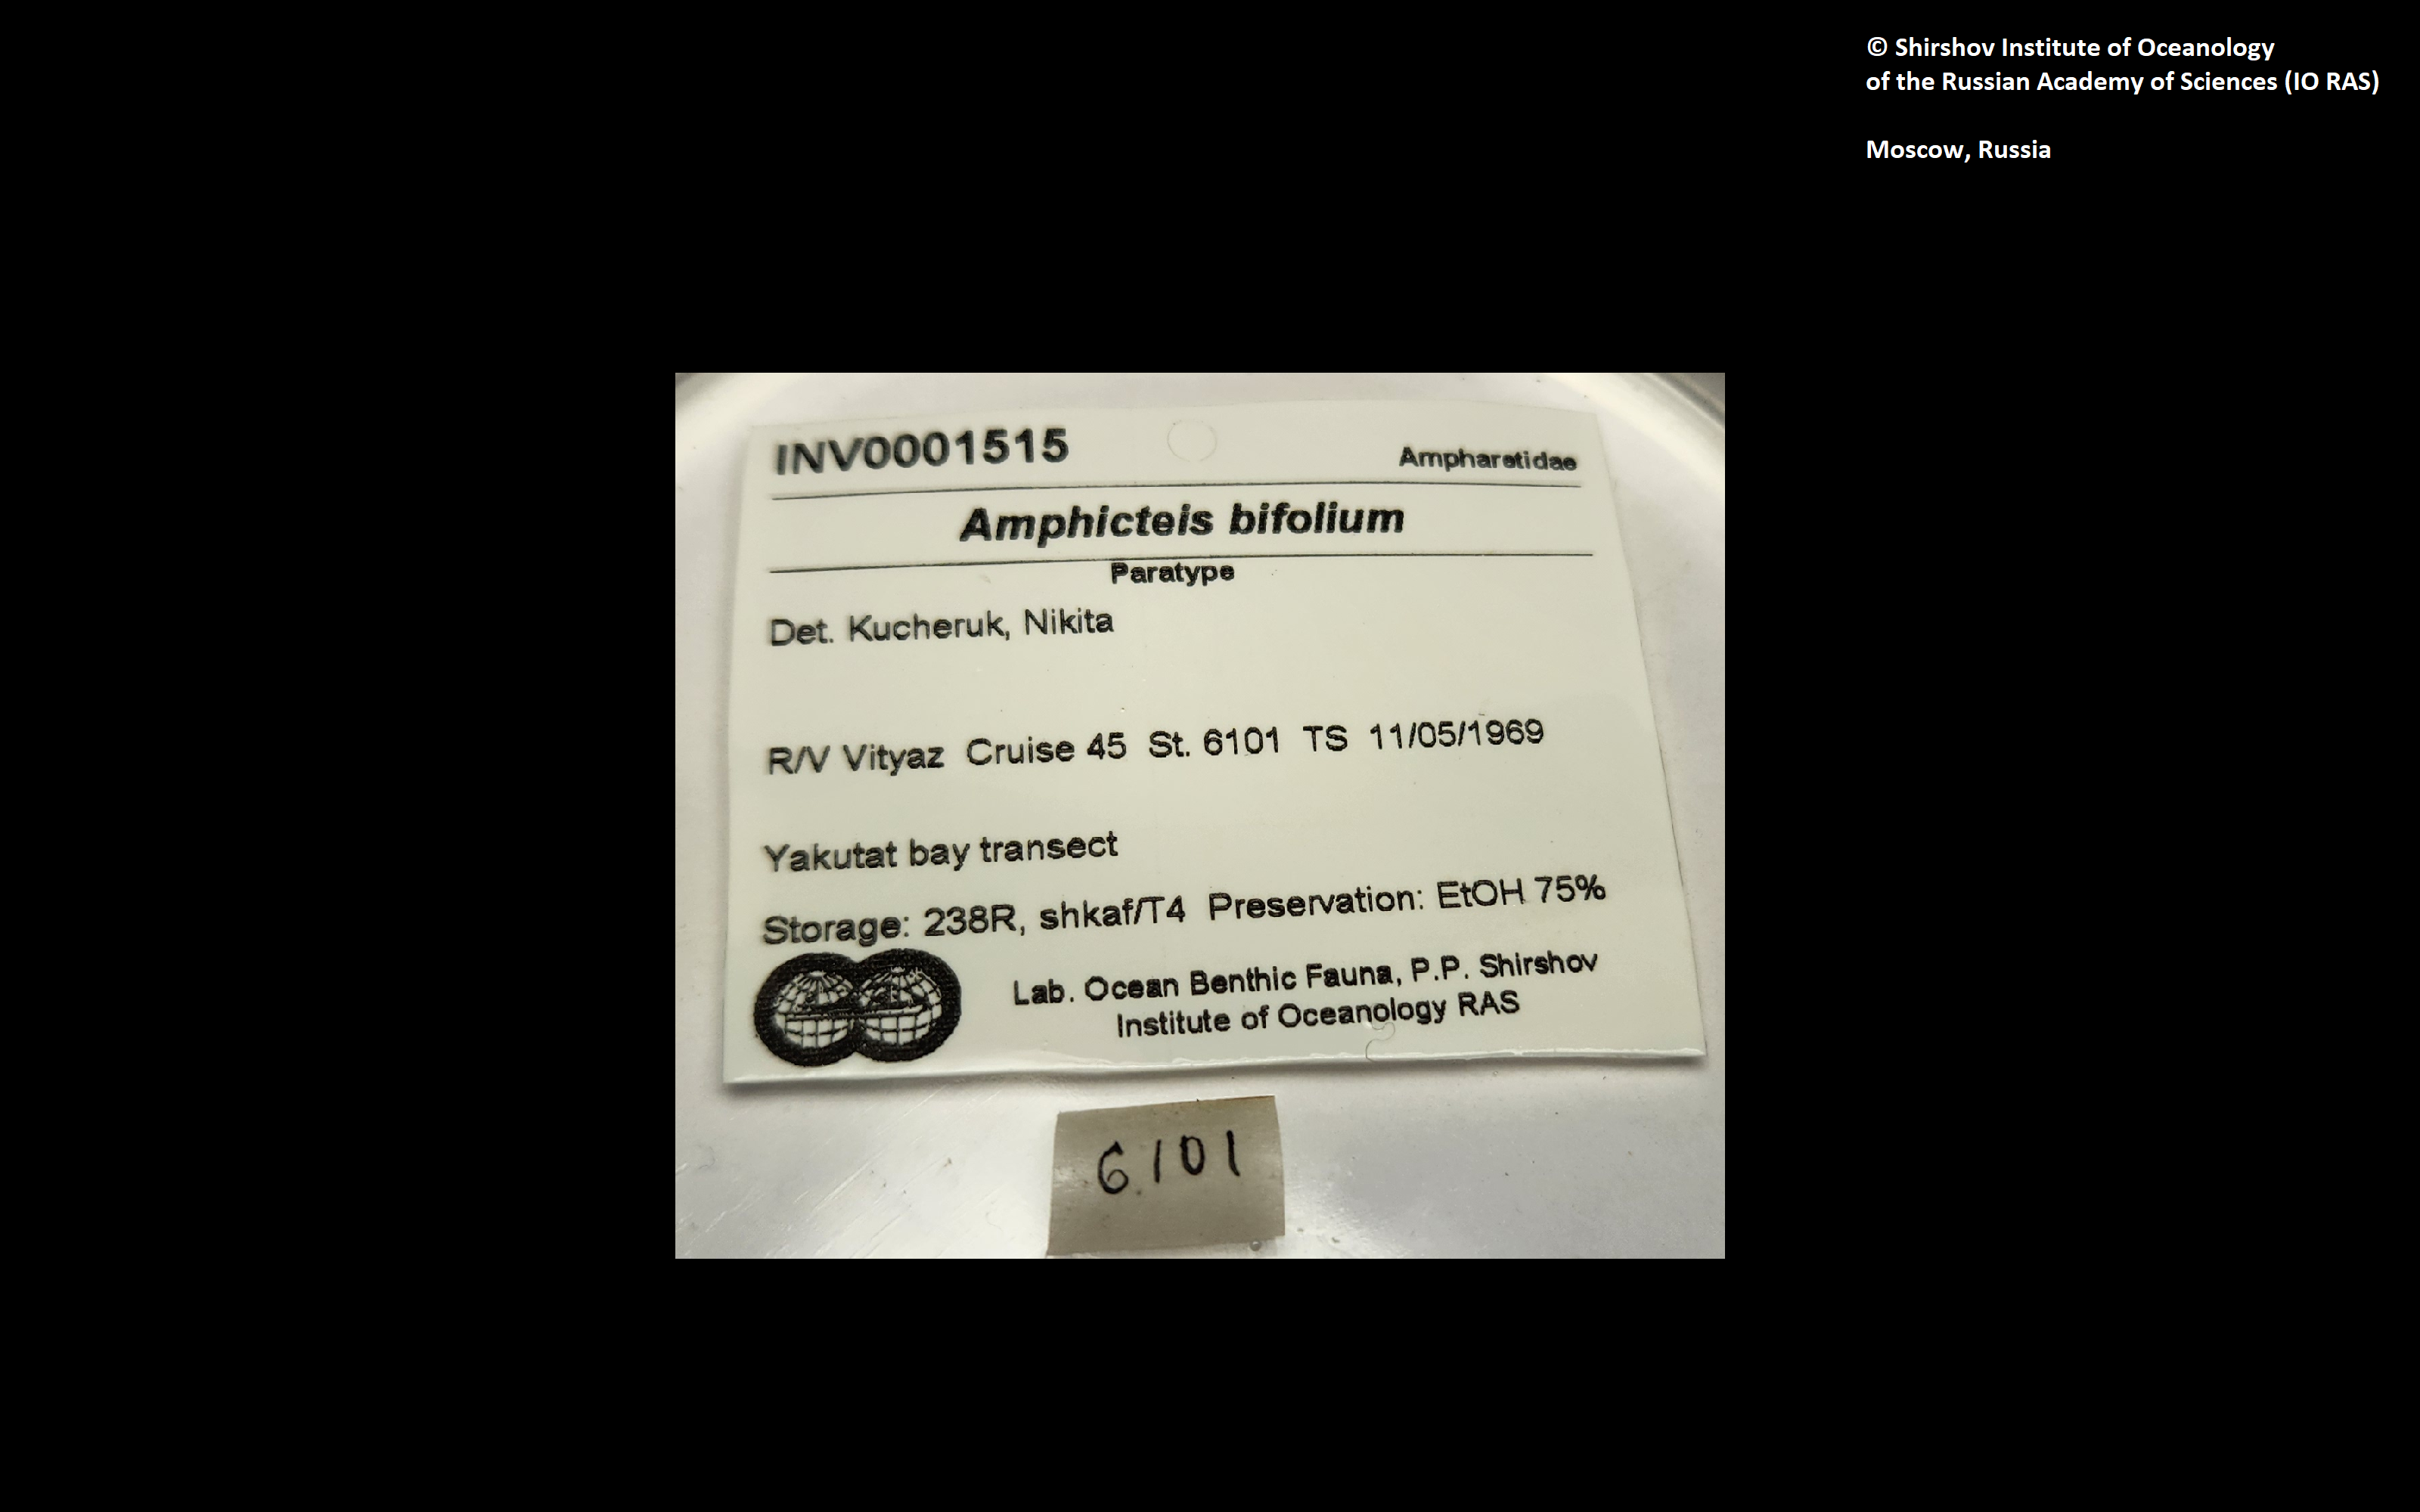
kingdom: Animalia
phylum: Annelida
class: Polychaeta
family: Ampharetidae
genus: Amphicteis
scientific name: Amphicteis bifolium
